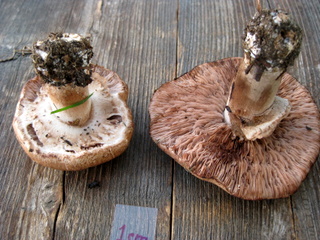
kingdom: Fungi
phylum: Basidiomycota
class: Agaricomycetes
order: Agaricales
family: Agaricaceae
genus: Agaricus
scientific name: Agaricus langei
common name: stor blod-champignon
